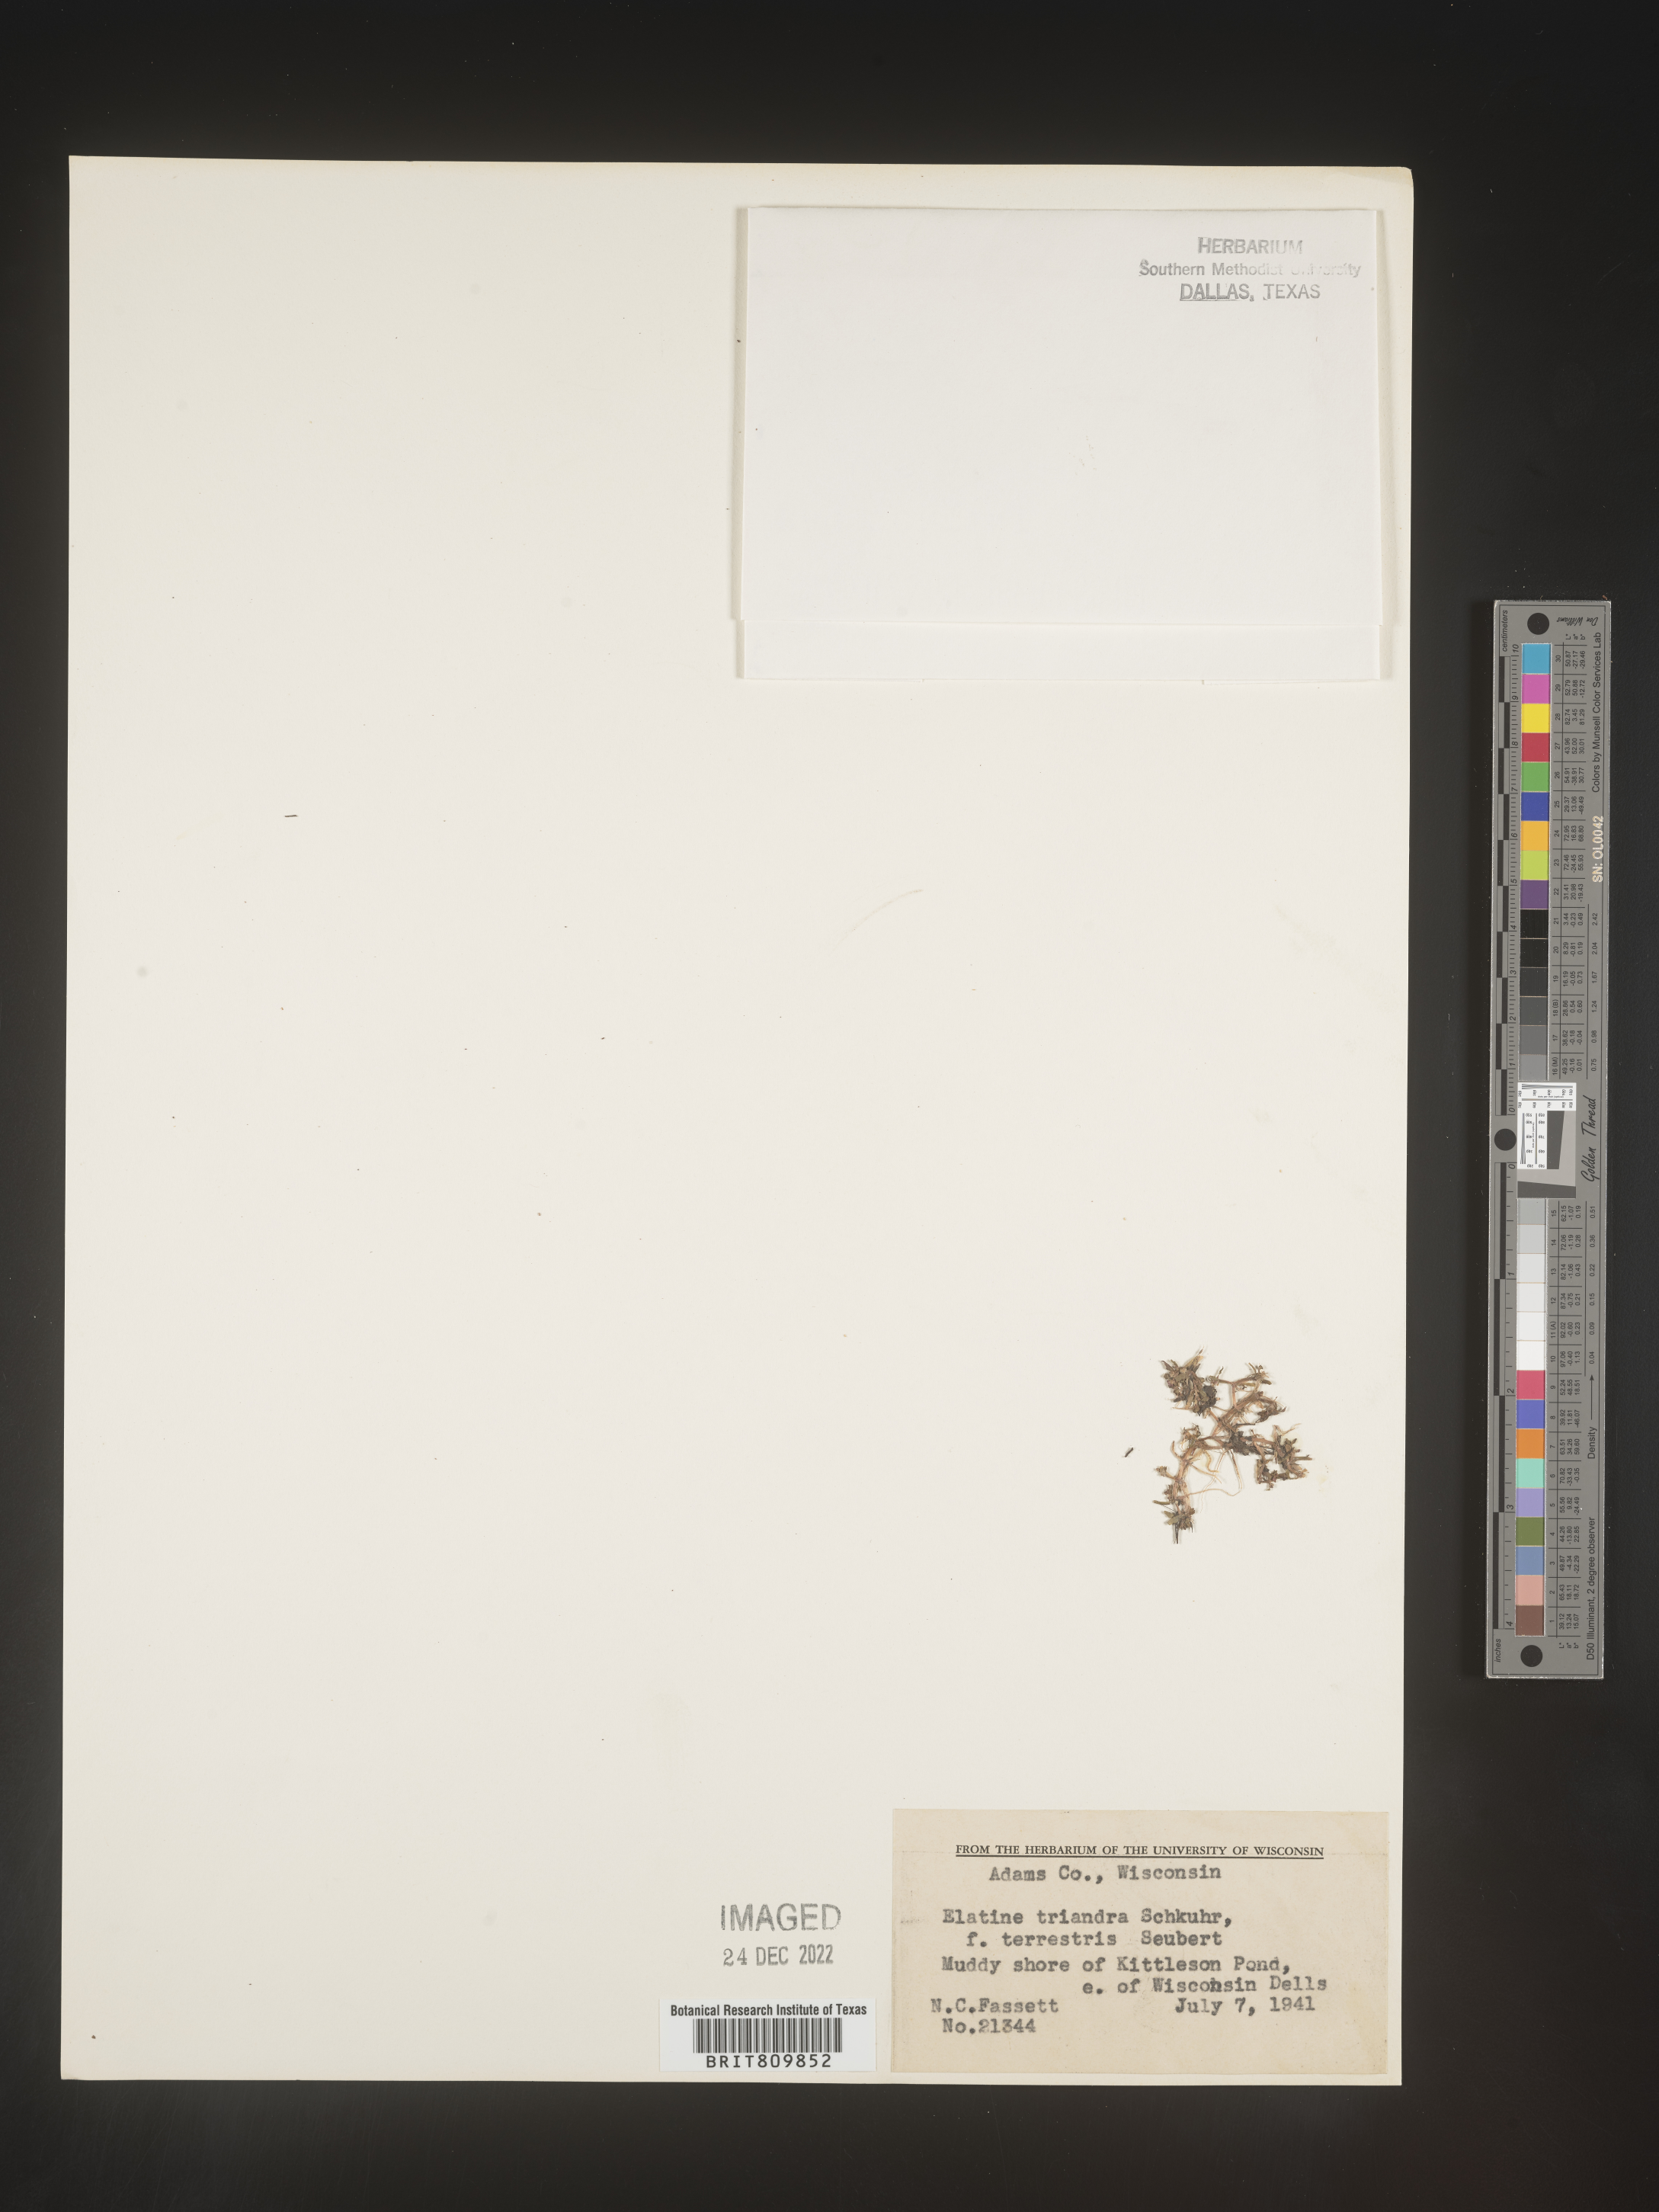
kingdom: Plantae
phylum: Tracheophyta
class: Magnoliopsida
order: Malpighiales
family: Elatinaceae
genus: Elatine
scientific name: Elatine
